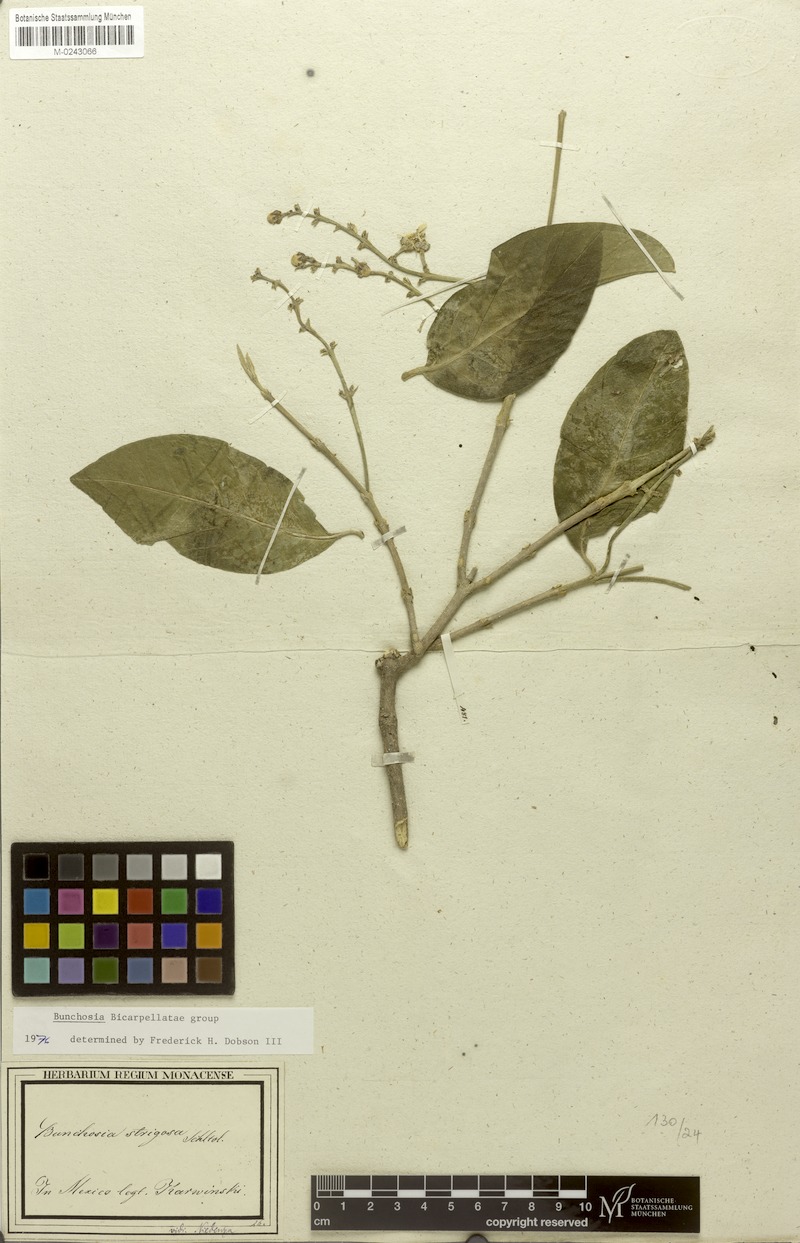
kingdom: Plantae
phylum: Tracheophyta
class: Magnoliopsida
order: Malpighiales
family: Malpighiaceae
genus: Bunchosia
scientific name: Bunchosia strigosa
